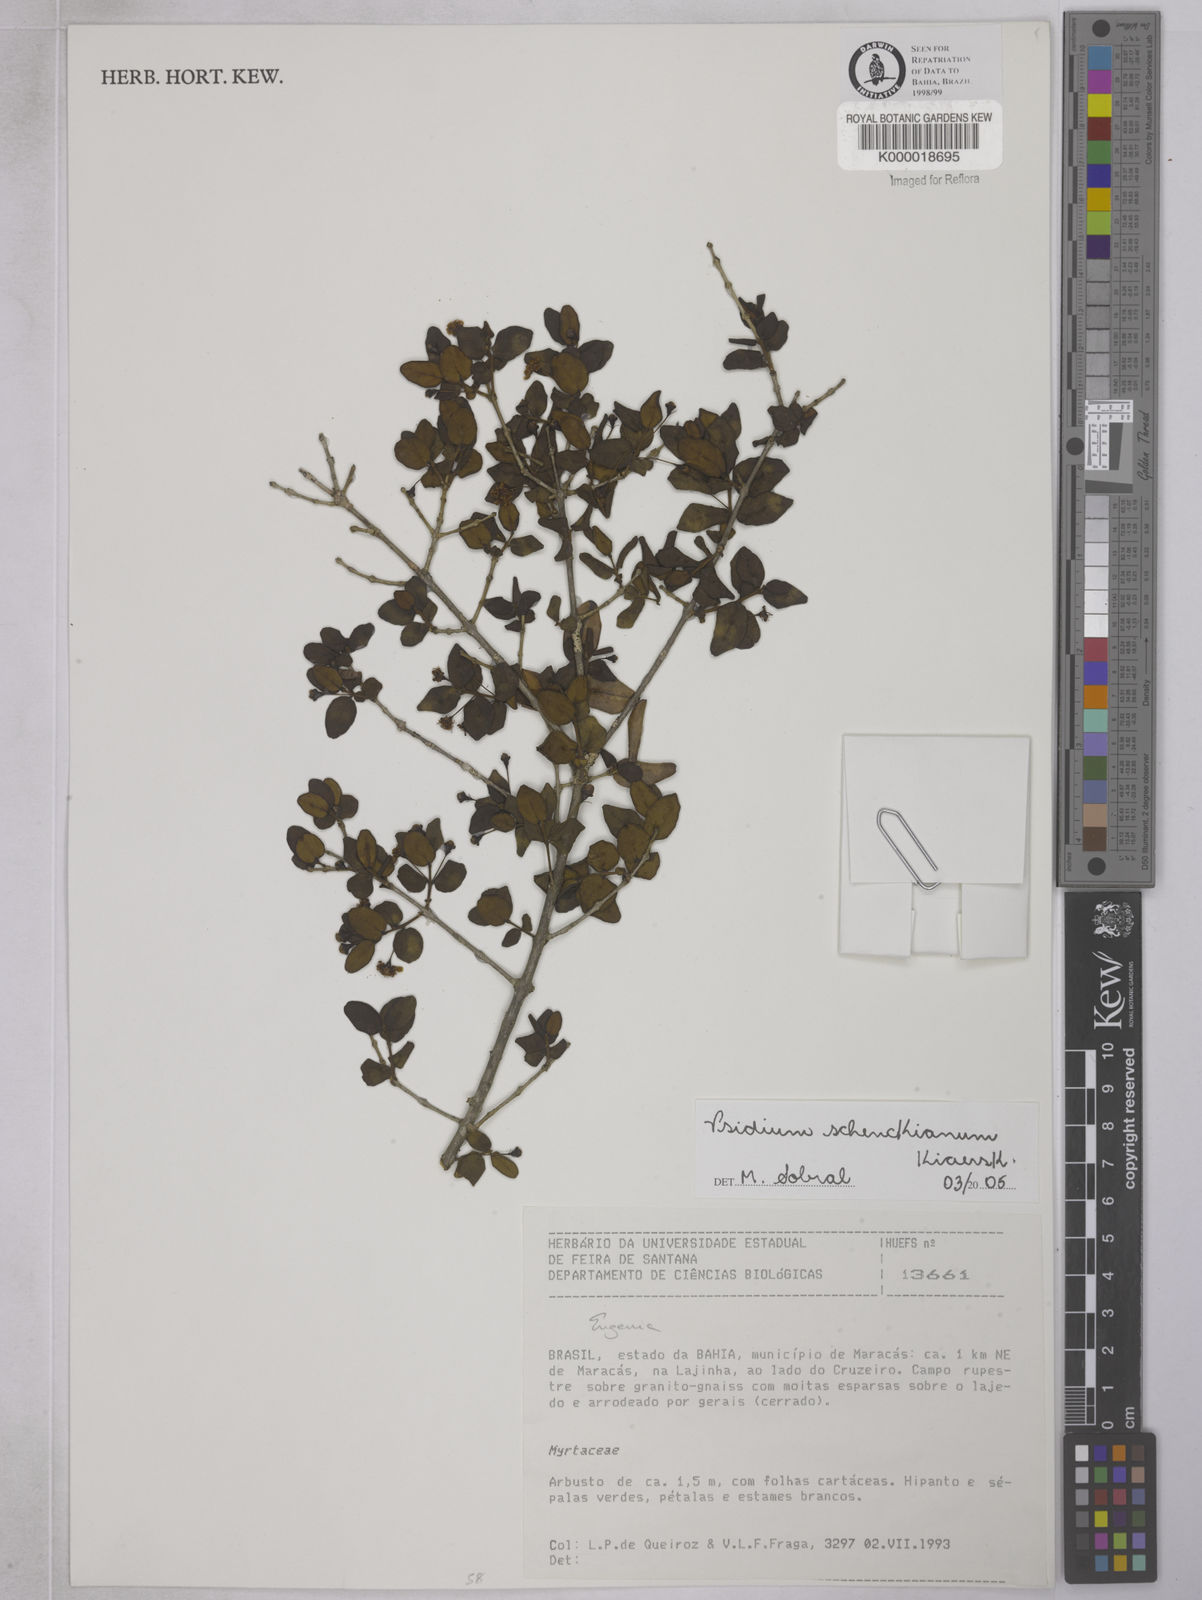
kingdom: Plantae
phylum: Tracheophyta
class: Magnoliopsida
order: Myrtales
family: Myrtaceae
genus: Psidium
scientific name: Psidium schenckianum
